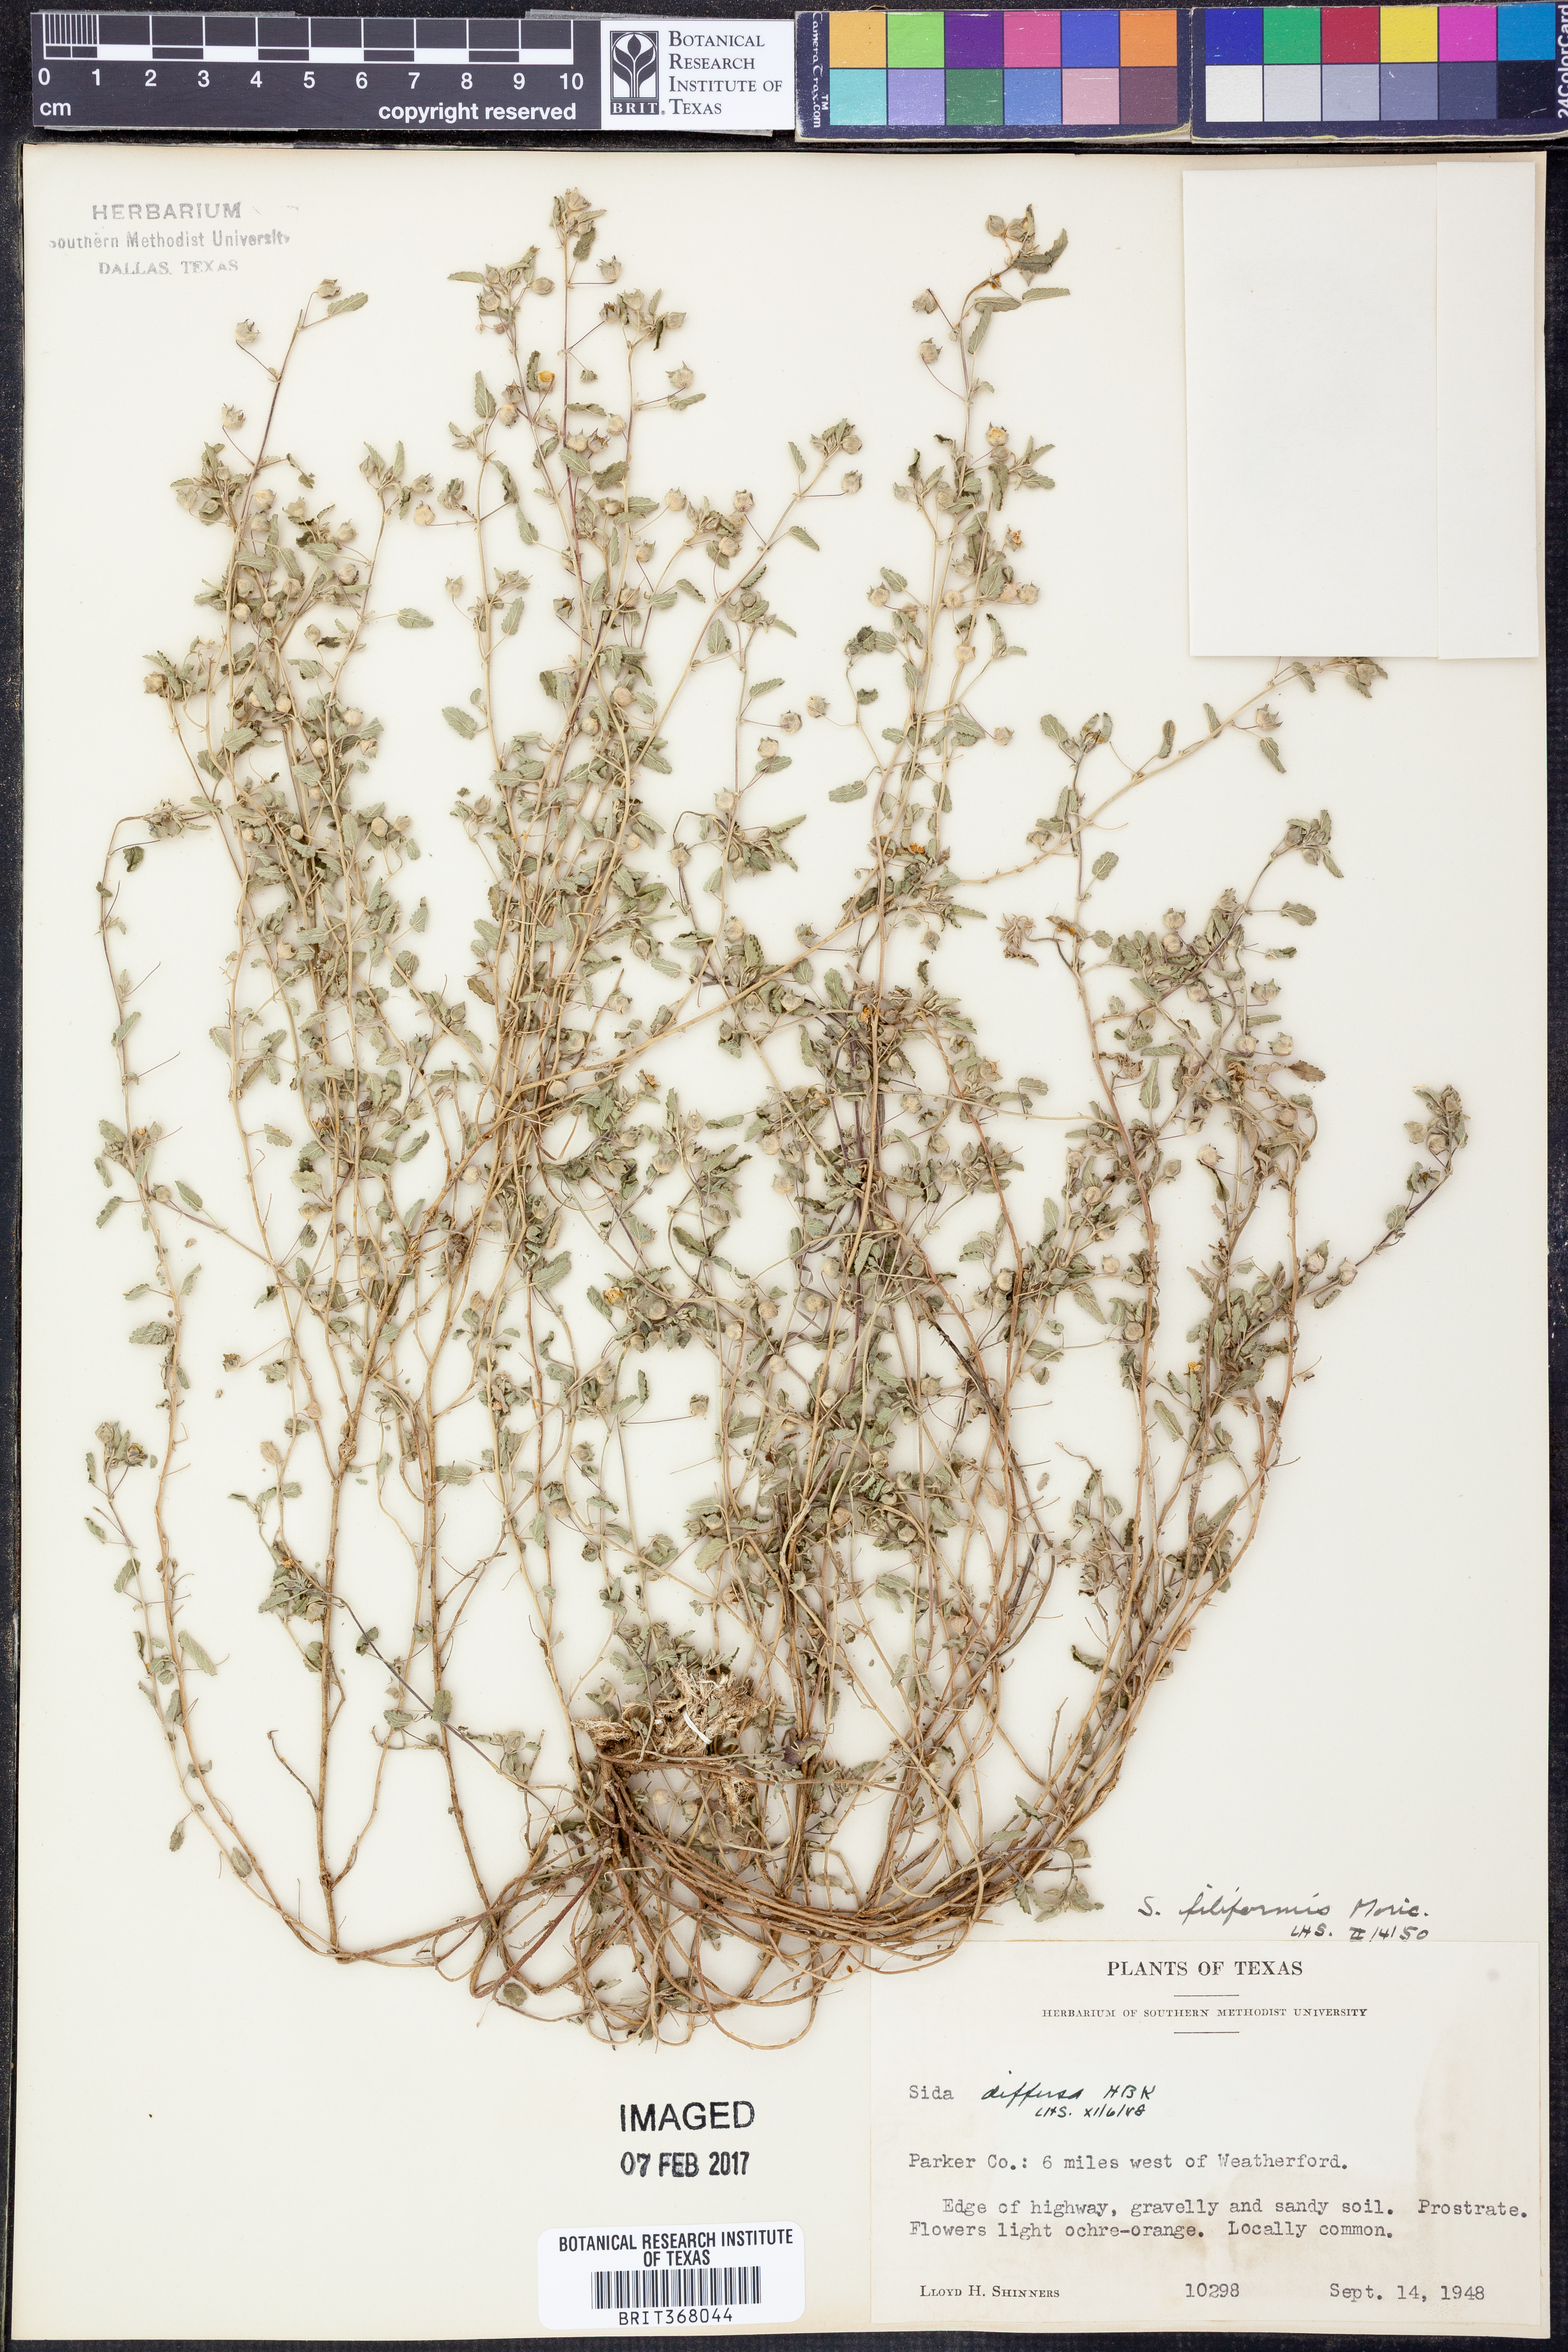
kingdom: Plantae
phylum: Tracheophyta
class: Magnoliopsida
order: Malvales
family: Malvaceae
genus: Sida
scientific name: Sida abutilifolia
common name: Spreading fanpetals
